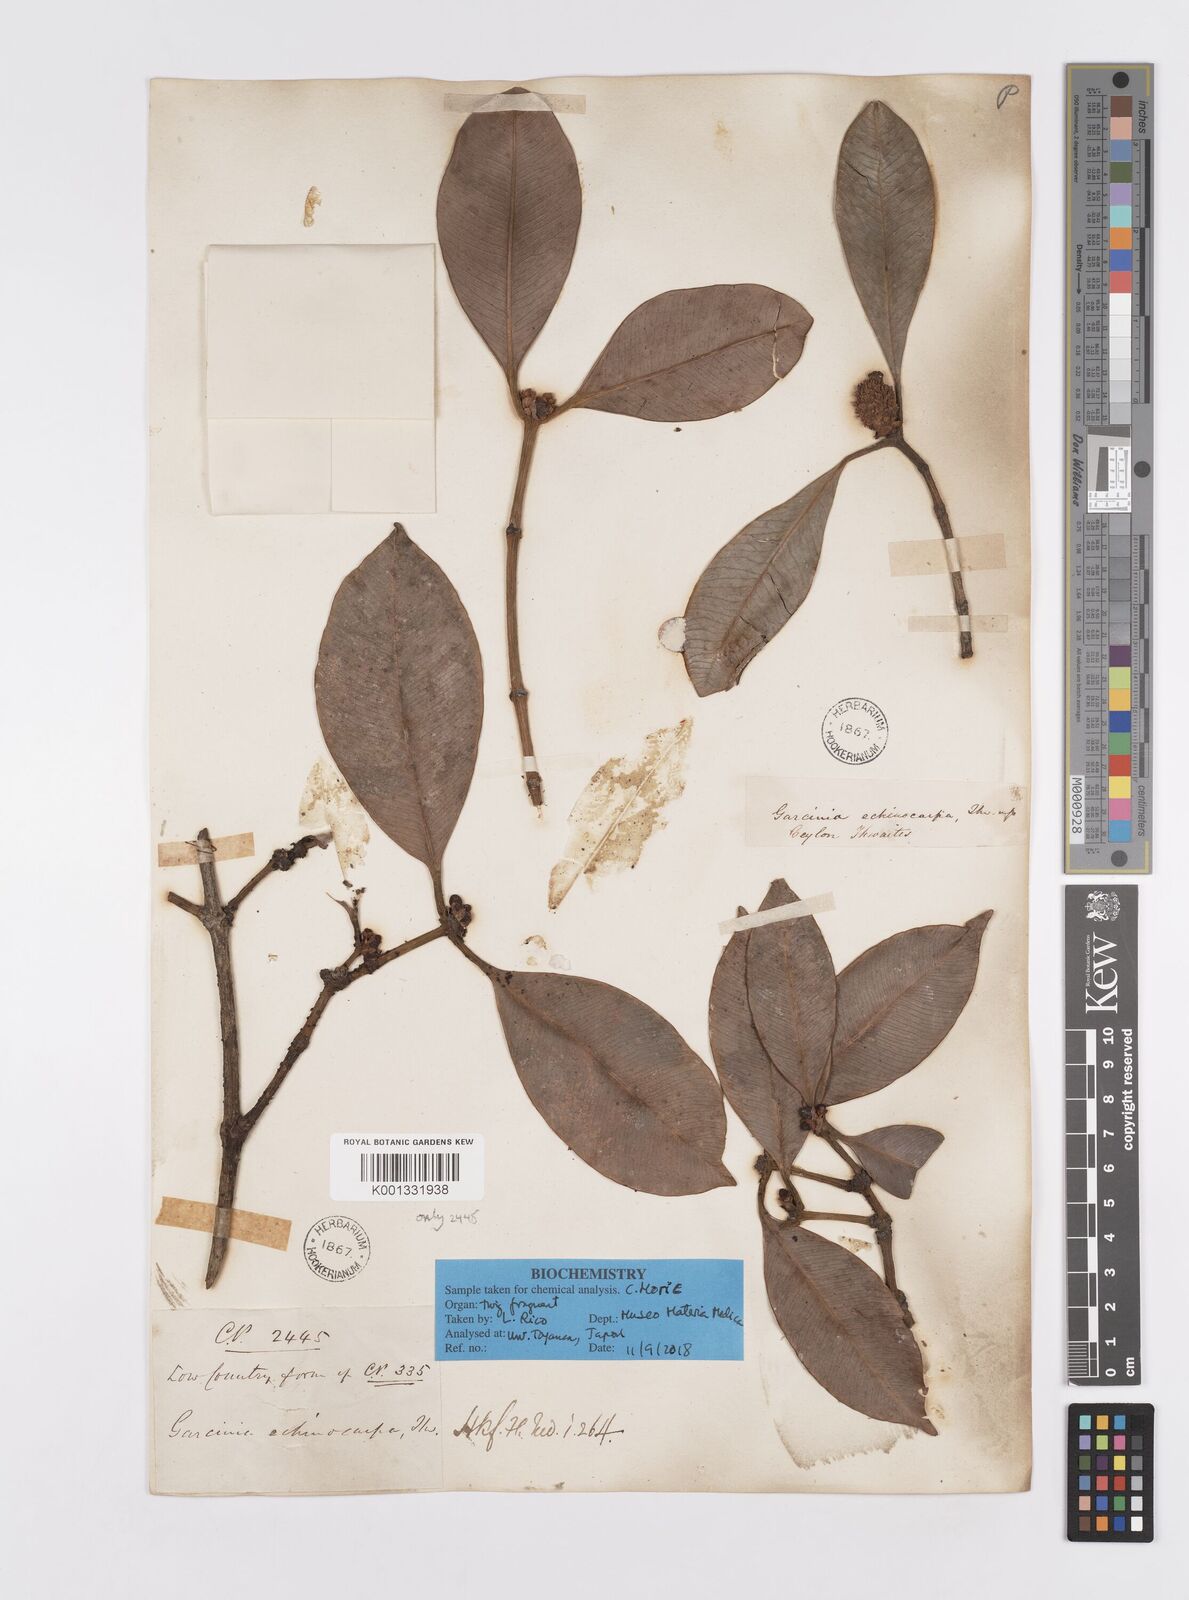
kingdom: Plantae
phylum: Tracheophyta
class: Magnoliopsida
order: Malpighiales
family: Clusiaceae
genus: Garcinia
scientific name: Garcinia echinocarpa
